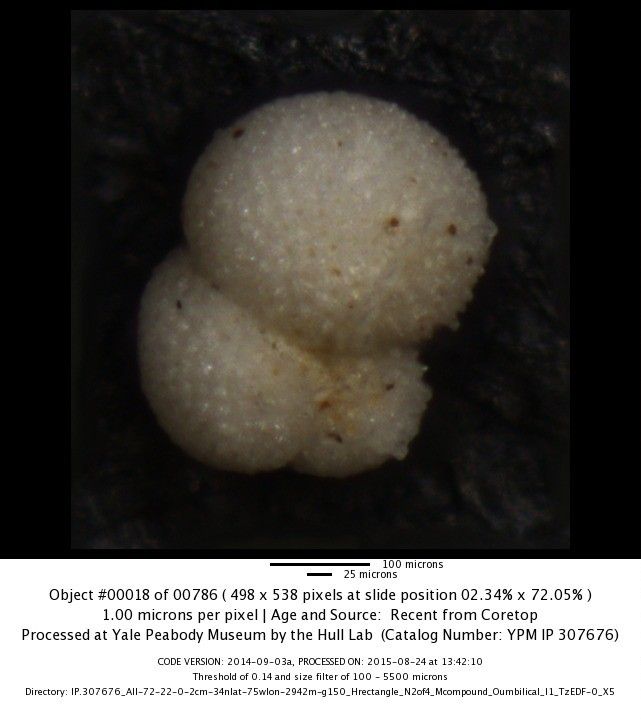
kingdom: Chromista
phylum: Foraminifera
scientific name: Foraminifera
